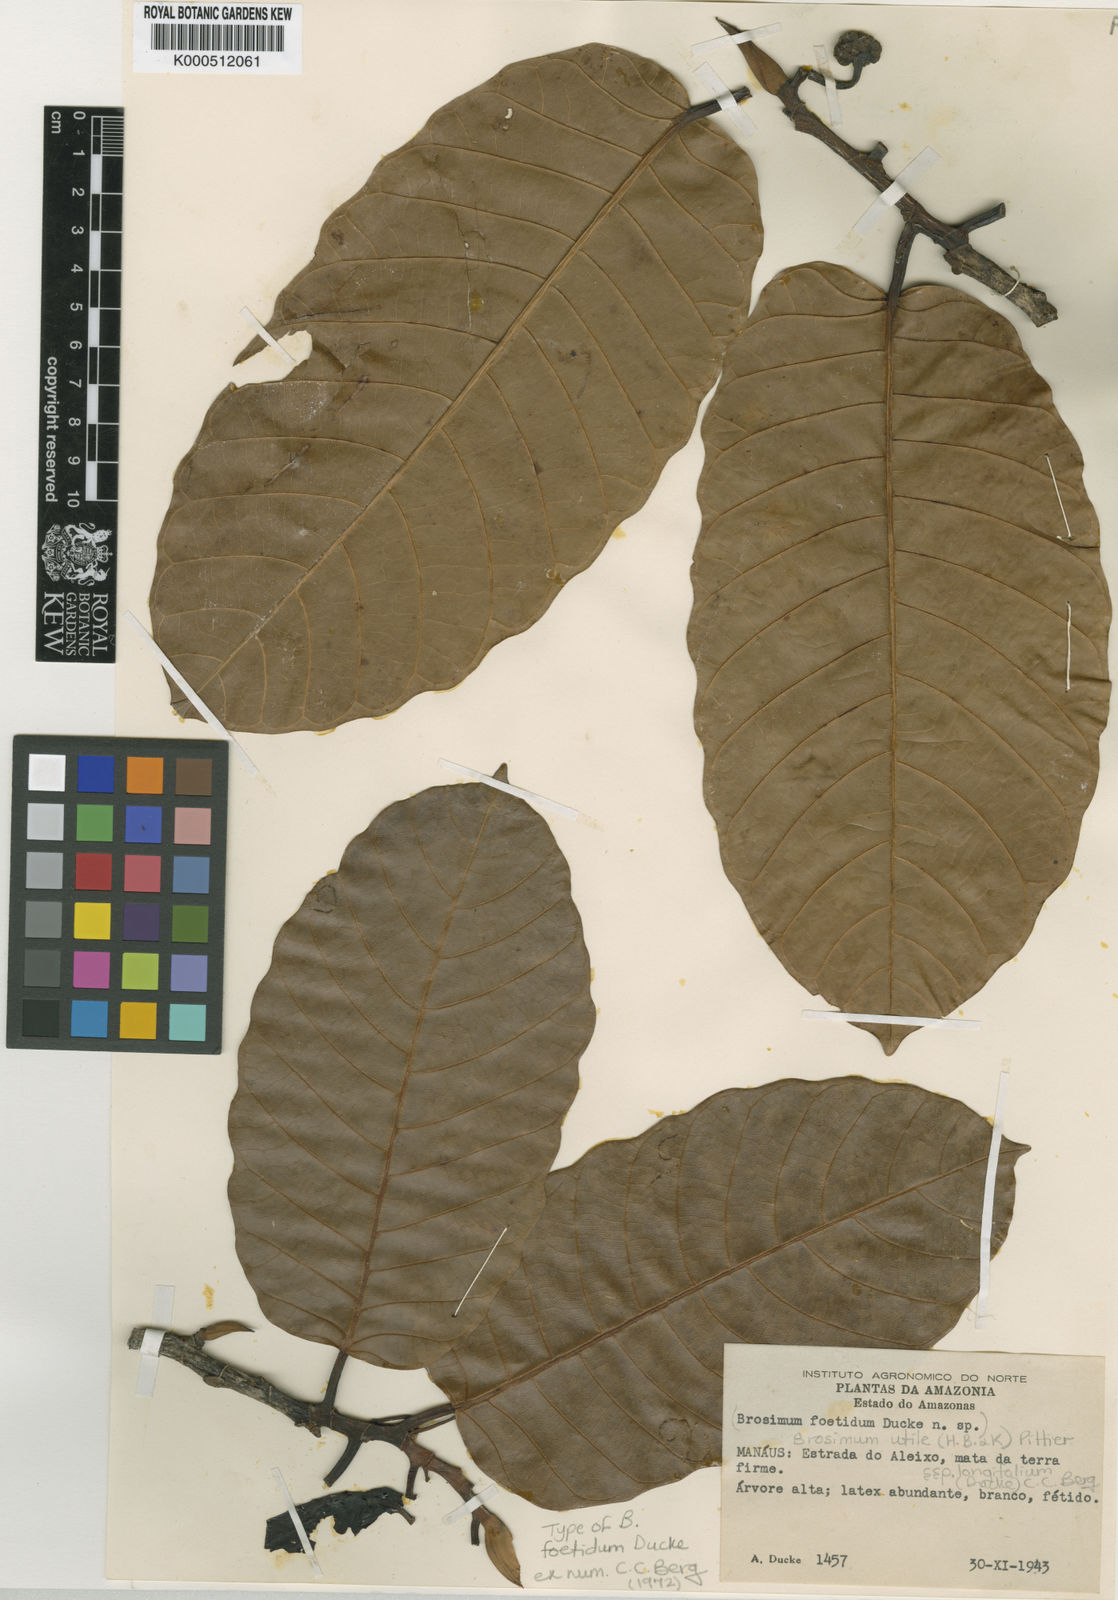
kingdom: Plantae
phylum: Tracheophyta
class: Magnoliopsida
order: Rosales
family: Moraceae
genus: Brosimum
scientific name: Brosimum longifolium
